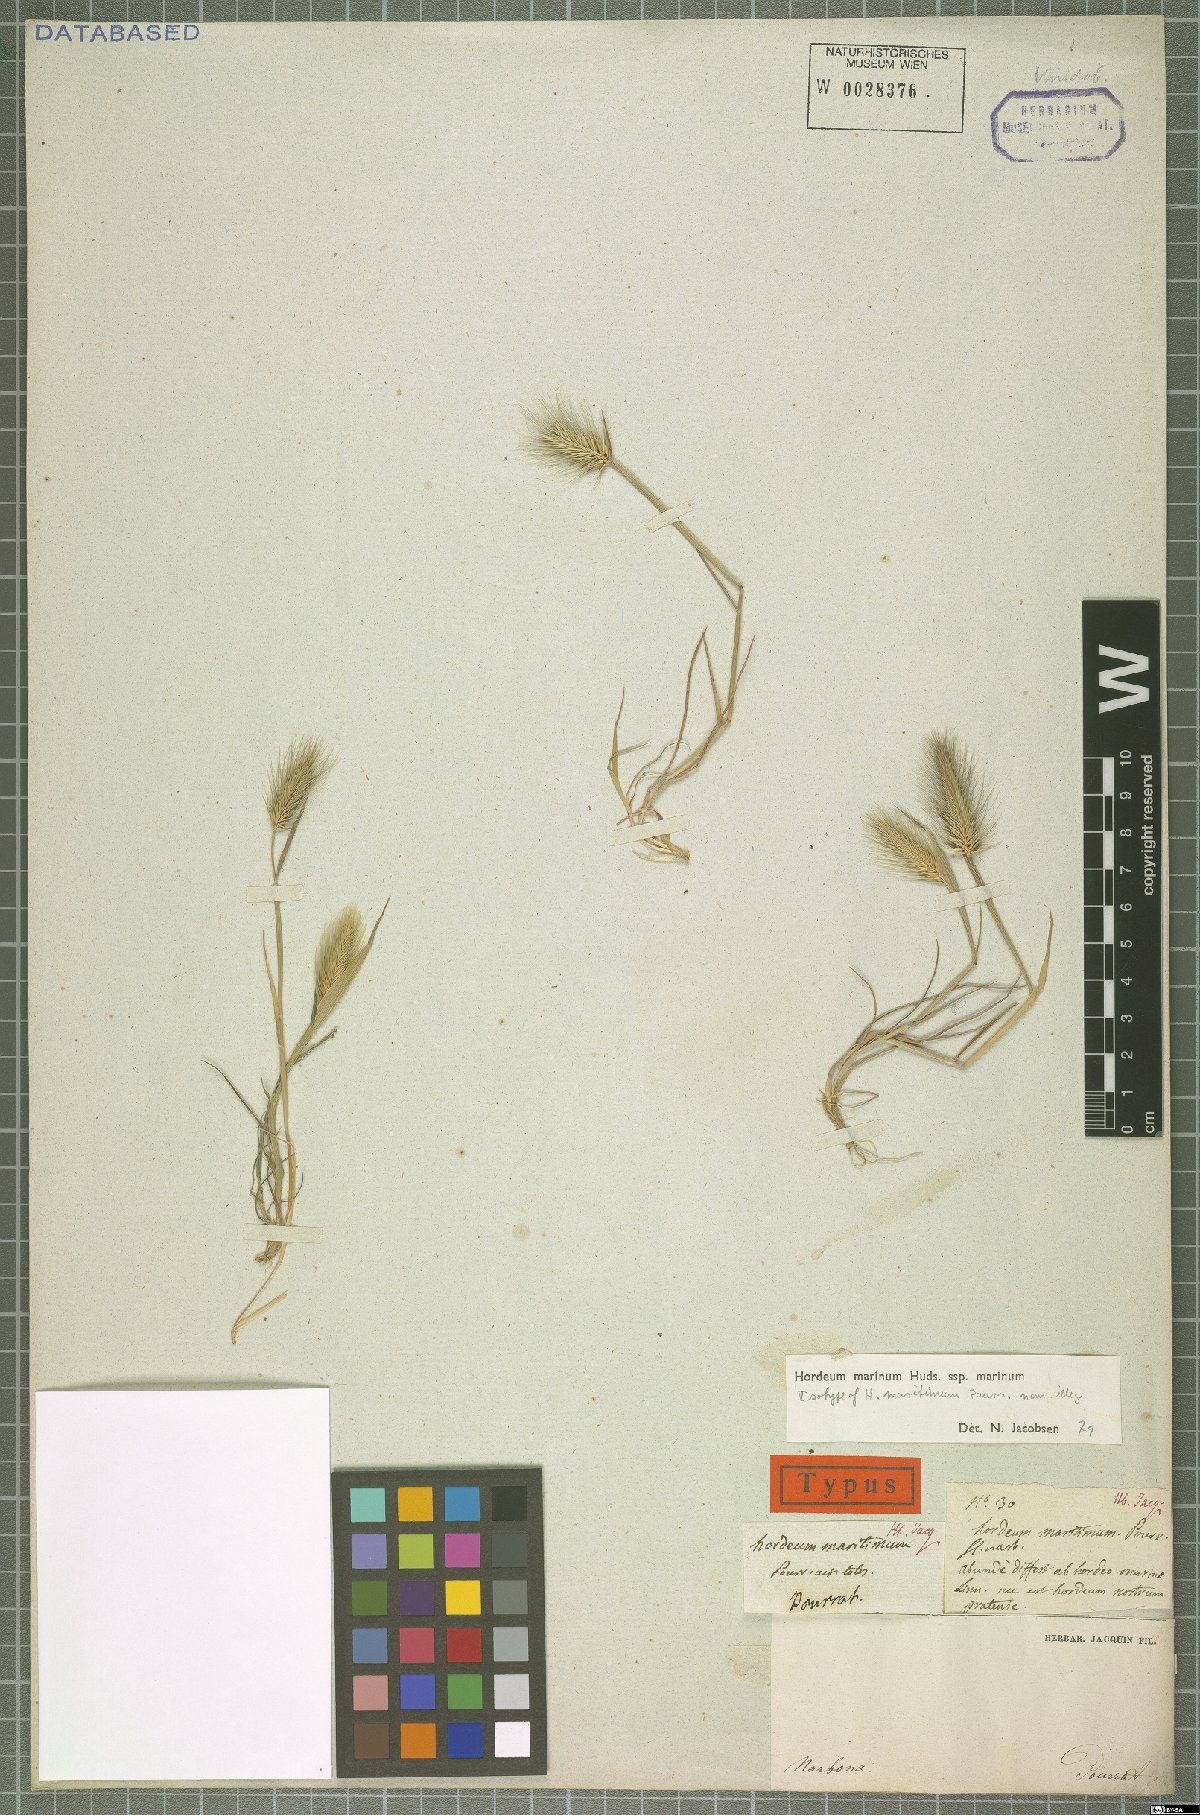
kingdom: Plantae
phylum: Tracheophyta
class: Liliopsida
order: Poales
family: Poaceae
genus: Hordeum
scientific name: Hordeum marinum
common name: Sea barley
